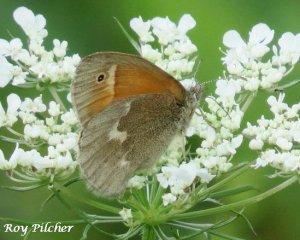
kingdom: Animalia
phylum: Arthropoda
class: Insecta
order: Lepidoptera
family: Nymphalidae
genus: Coenonympha
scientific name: Coenonympha tullia
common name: Large Heath
